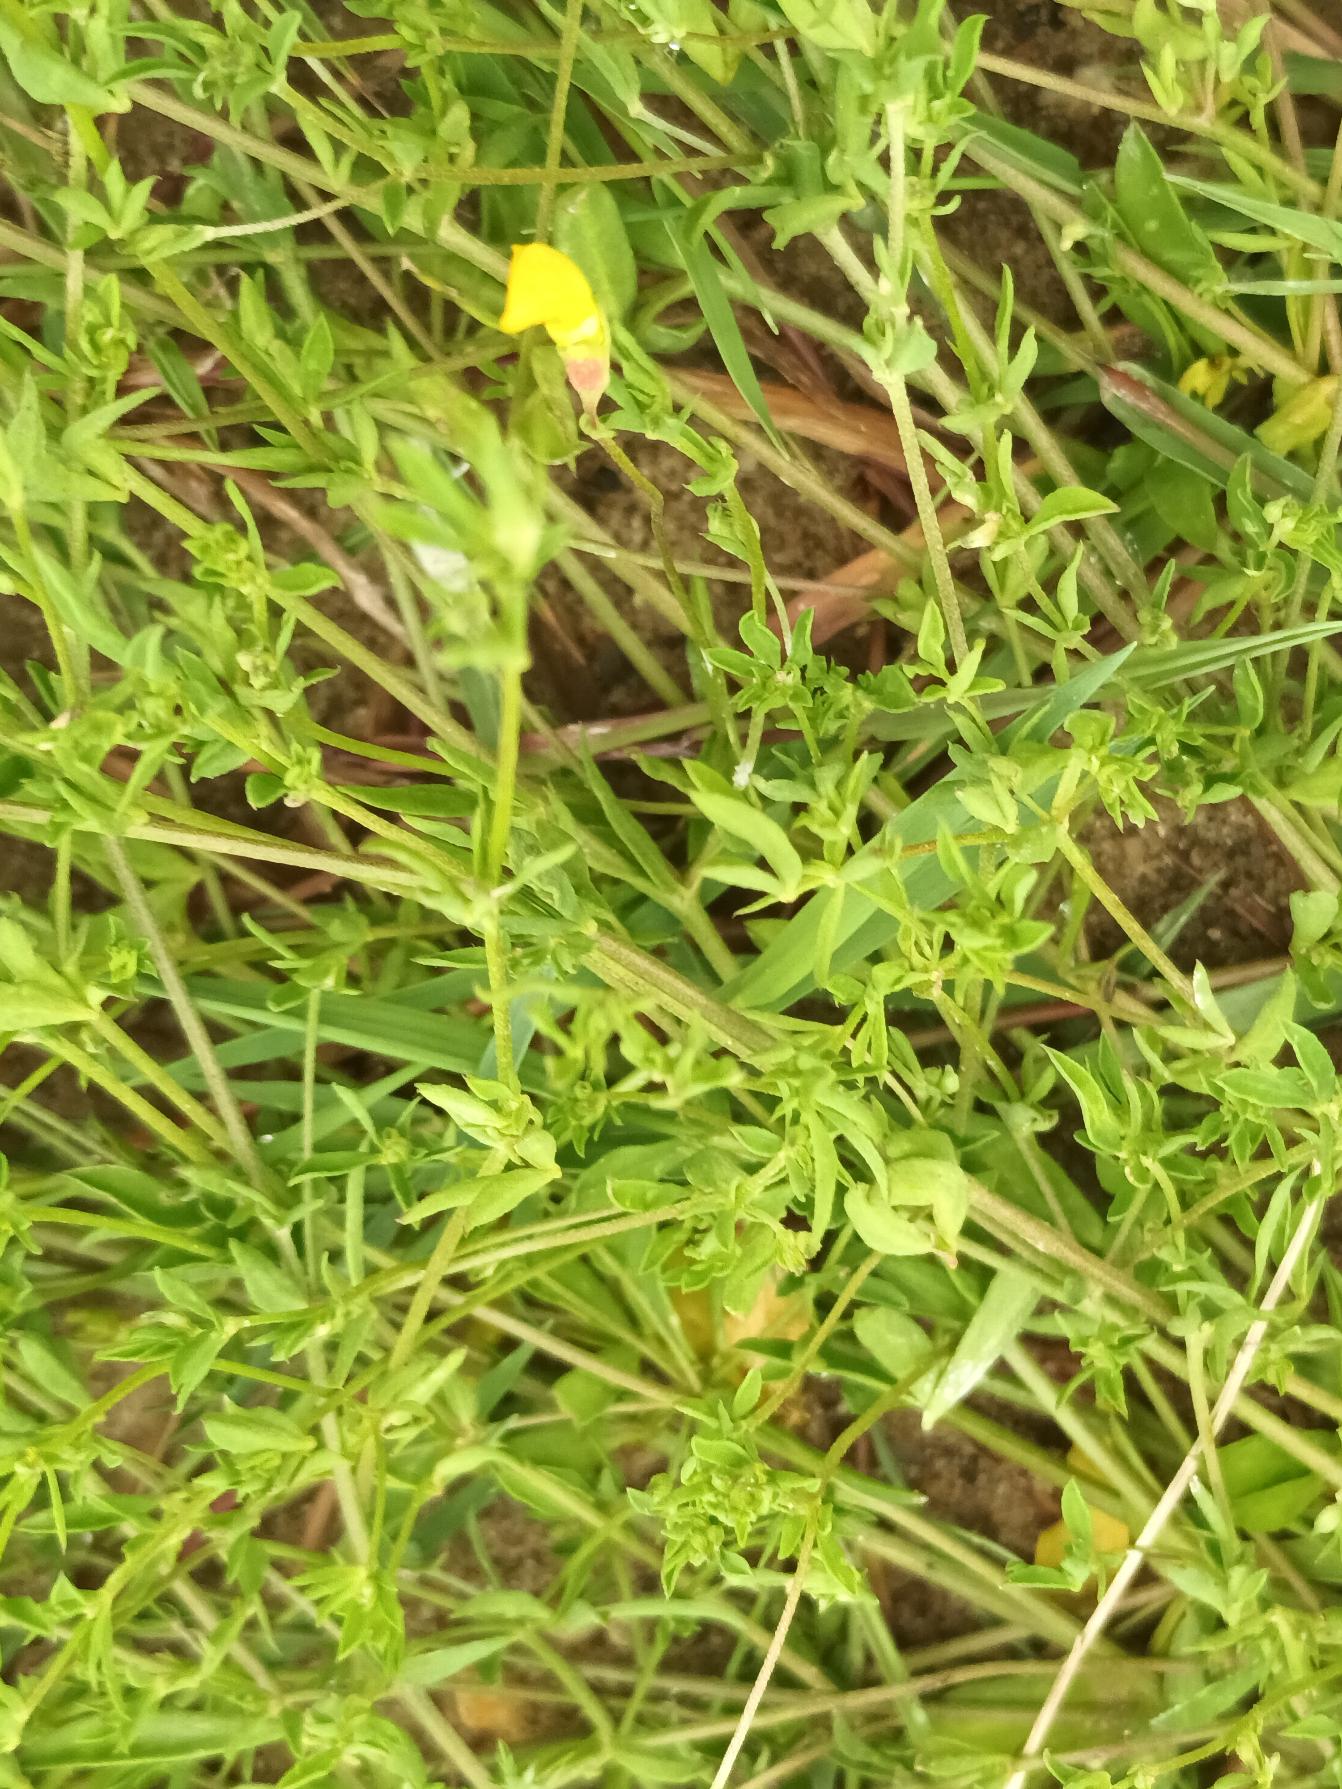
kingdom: Plantae
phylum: Tracheophyta
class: Magnoliopsida
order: Fabales
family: Fabaceae
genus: Lotus
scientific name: Lotus tenuis
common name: Smalbladet kællingetand
